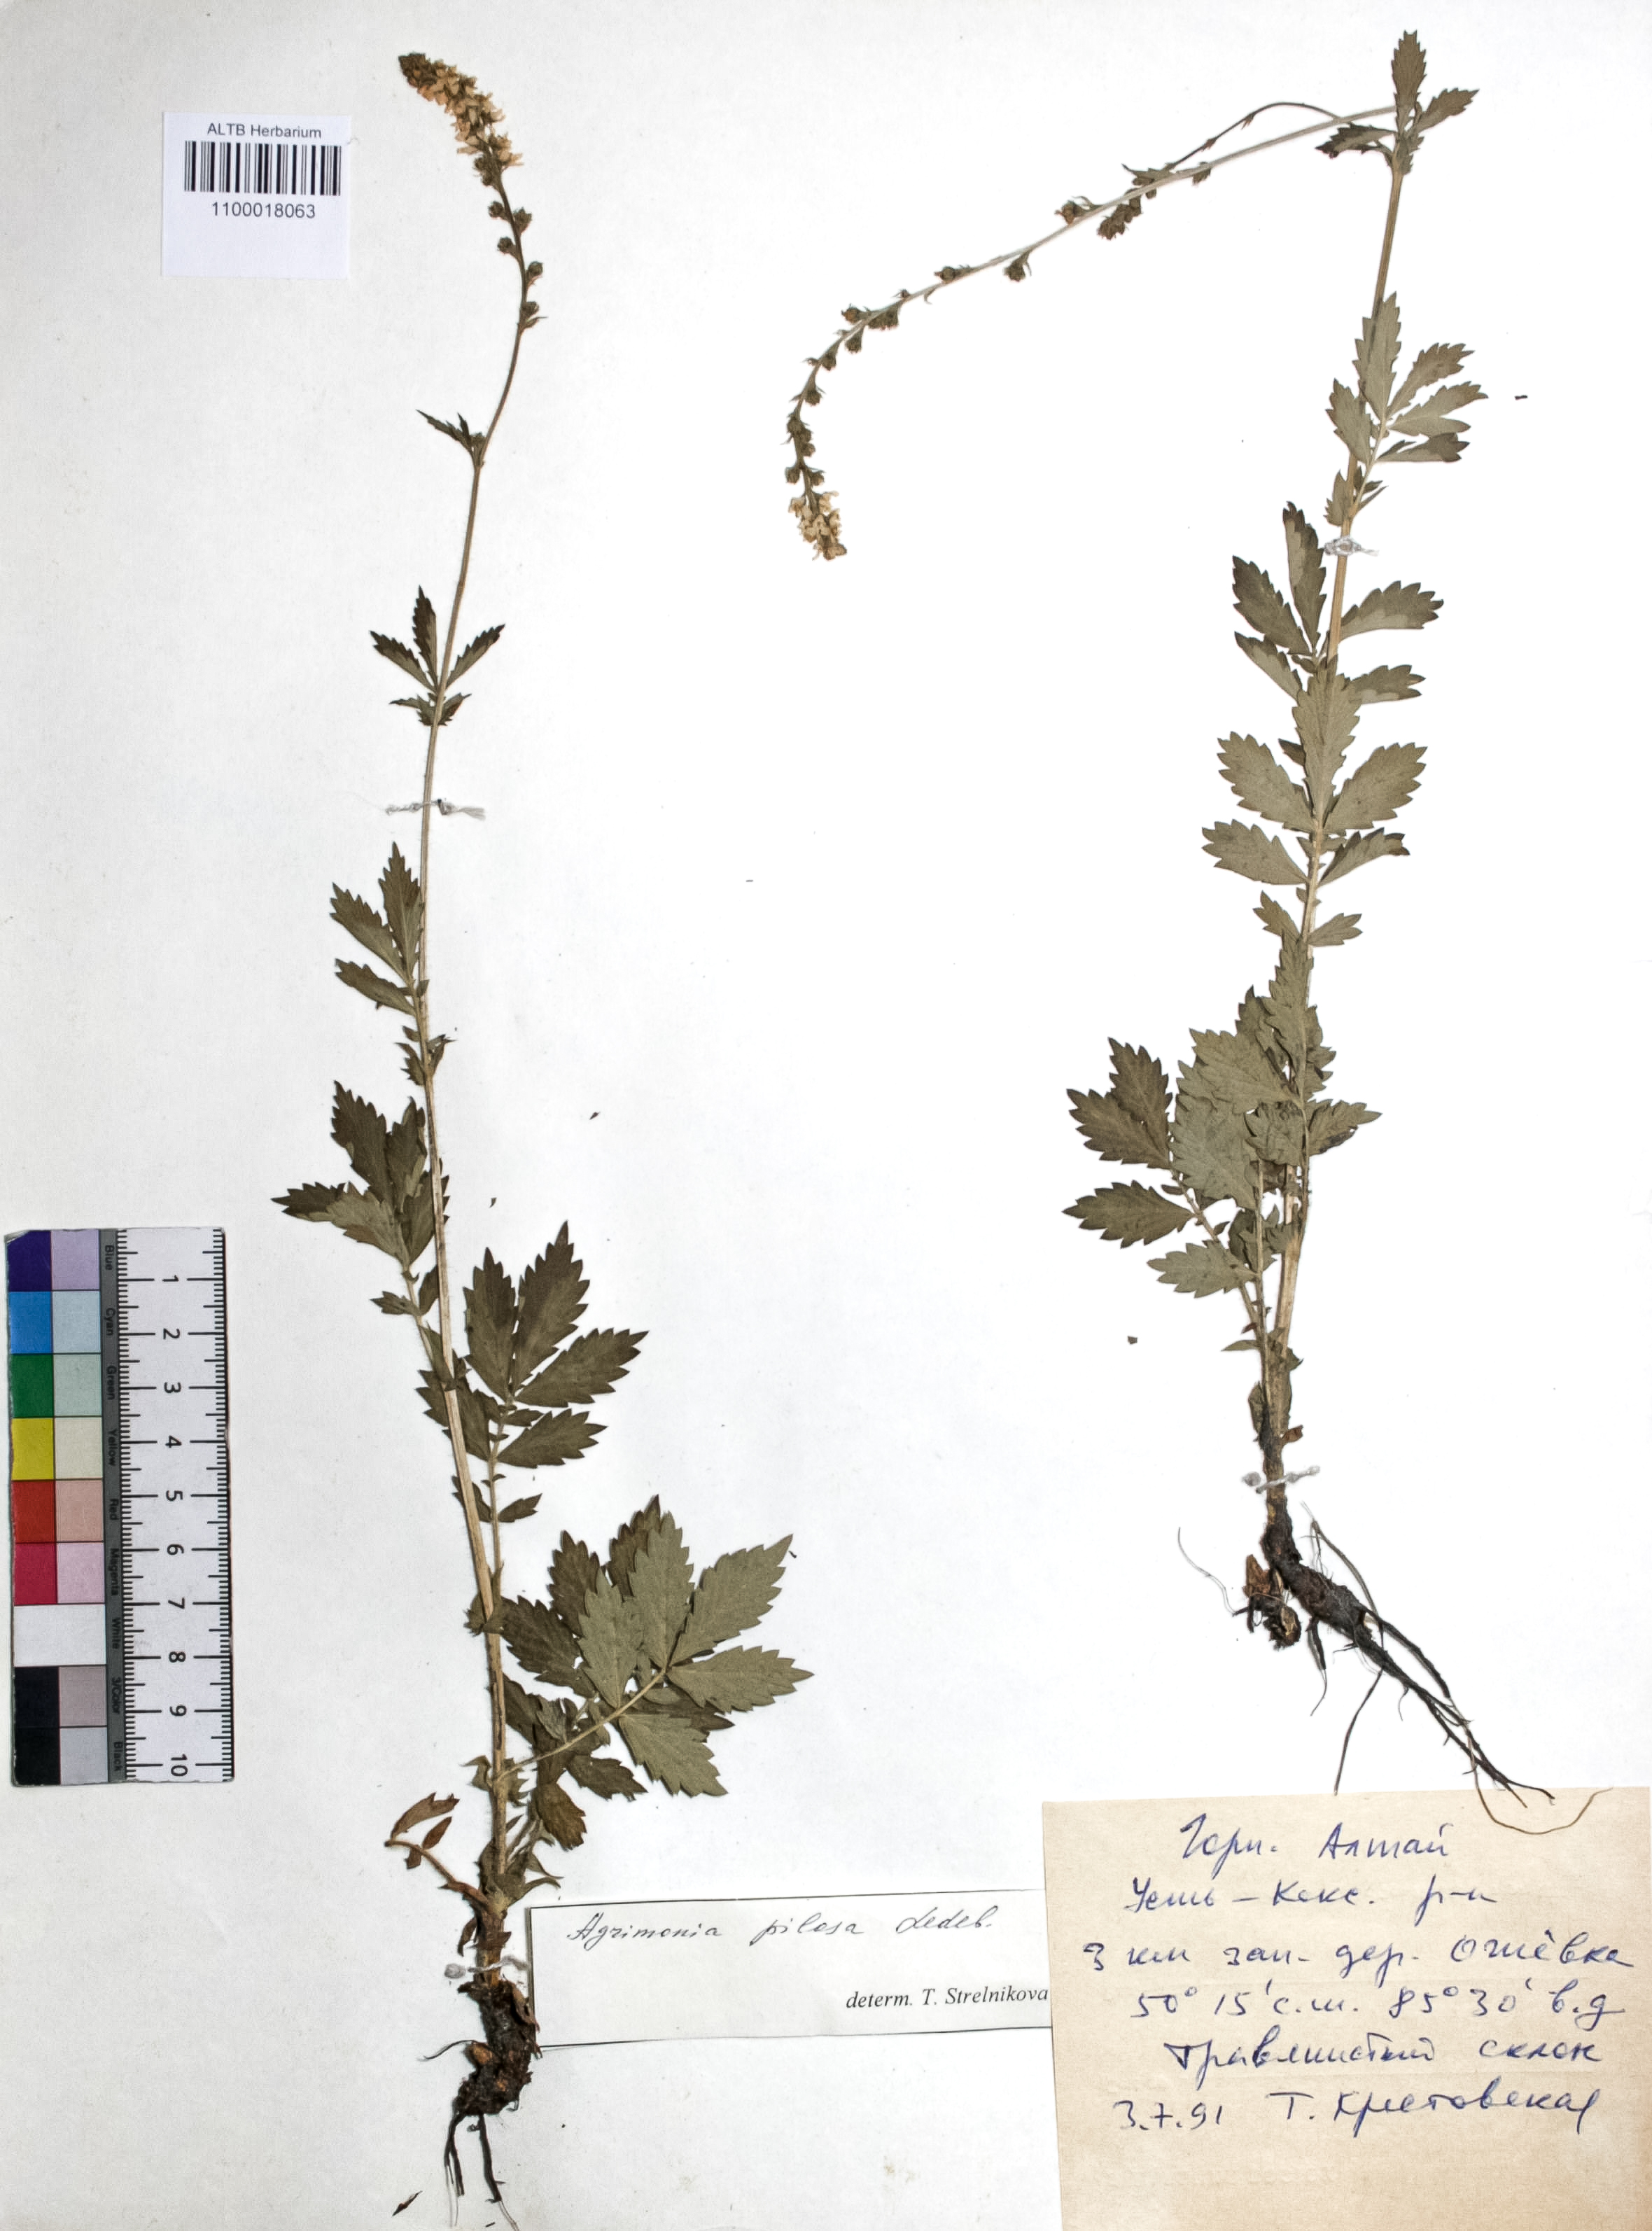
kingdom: Plantae
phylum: Tracheophyta
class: Magnoliopsida
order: Rosales
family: Rosaceae
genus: Agrimonia
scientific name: Agrimonia pilosa
